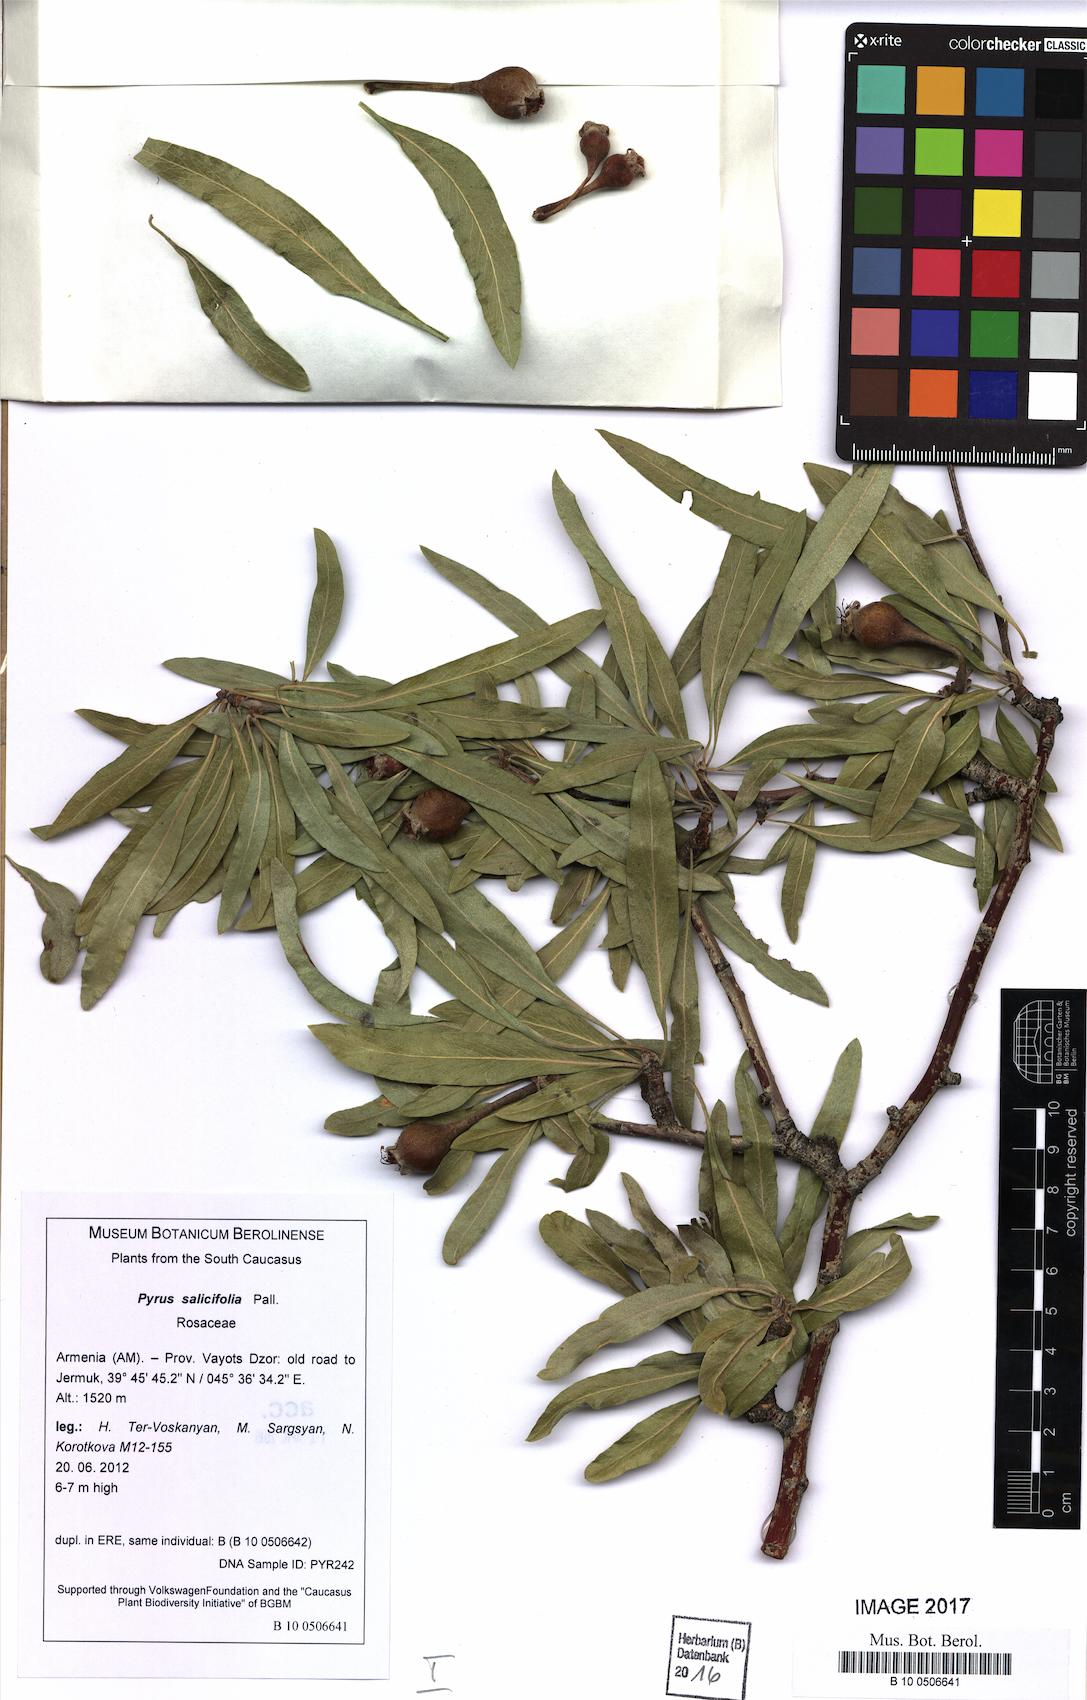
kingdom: Plantae
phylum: Tracheophyta
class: Magnoliopsida
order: Rosales
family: Rosaceae
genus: Pyrus
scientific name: Pyrus salicifolia
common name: Willow-leaved pear
